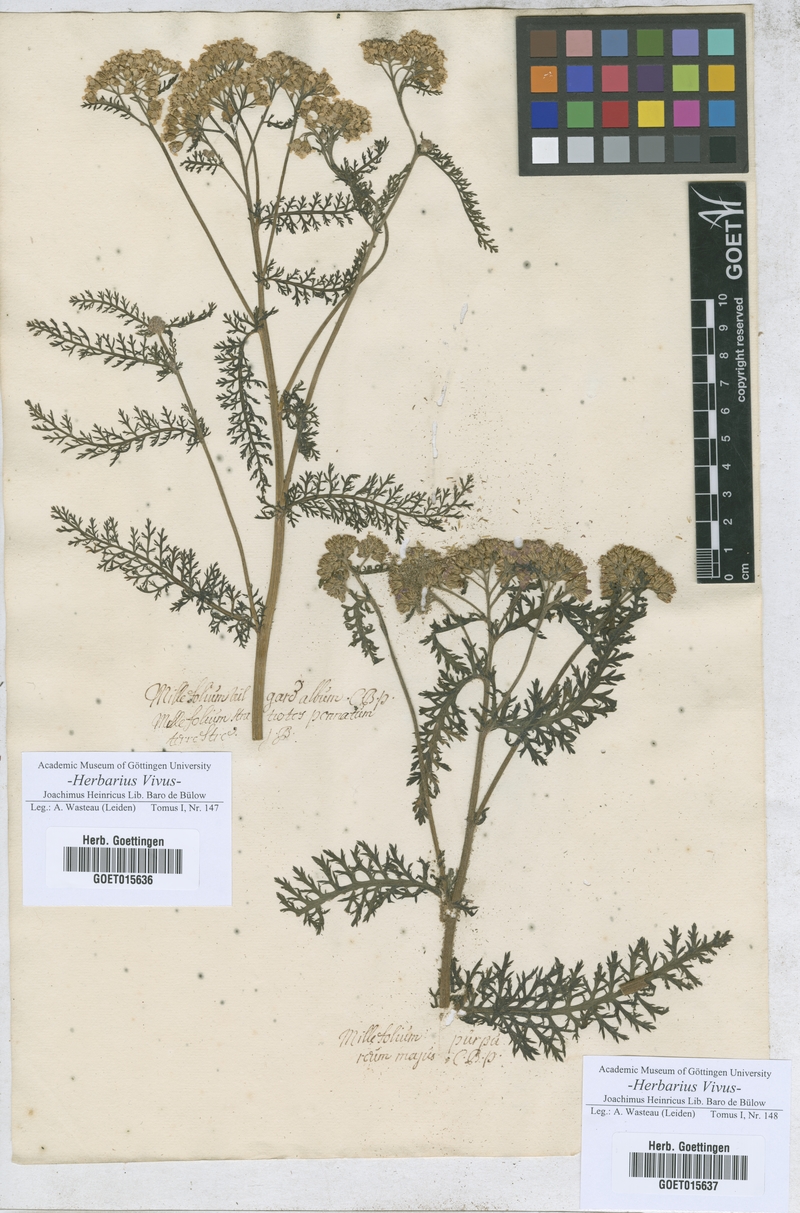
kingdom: Plantae
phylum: Tracheophyta
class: Magnoliopsida
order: Asterales
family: Asteraceae
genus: Achillea
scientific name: Achillea millefolium
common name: Yarrow
